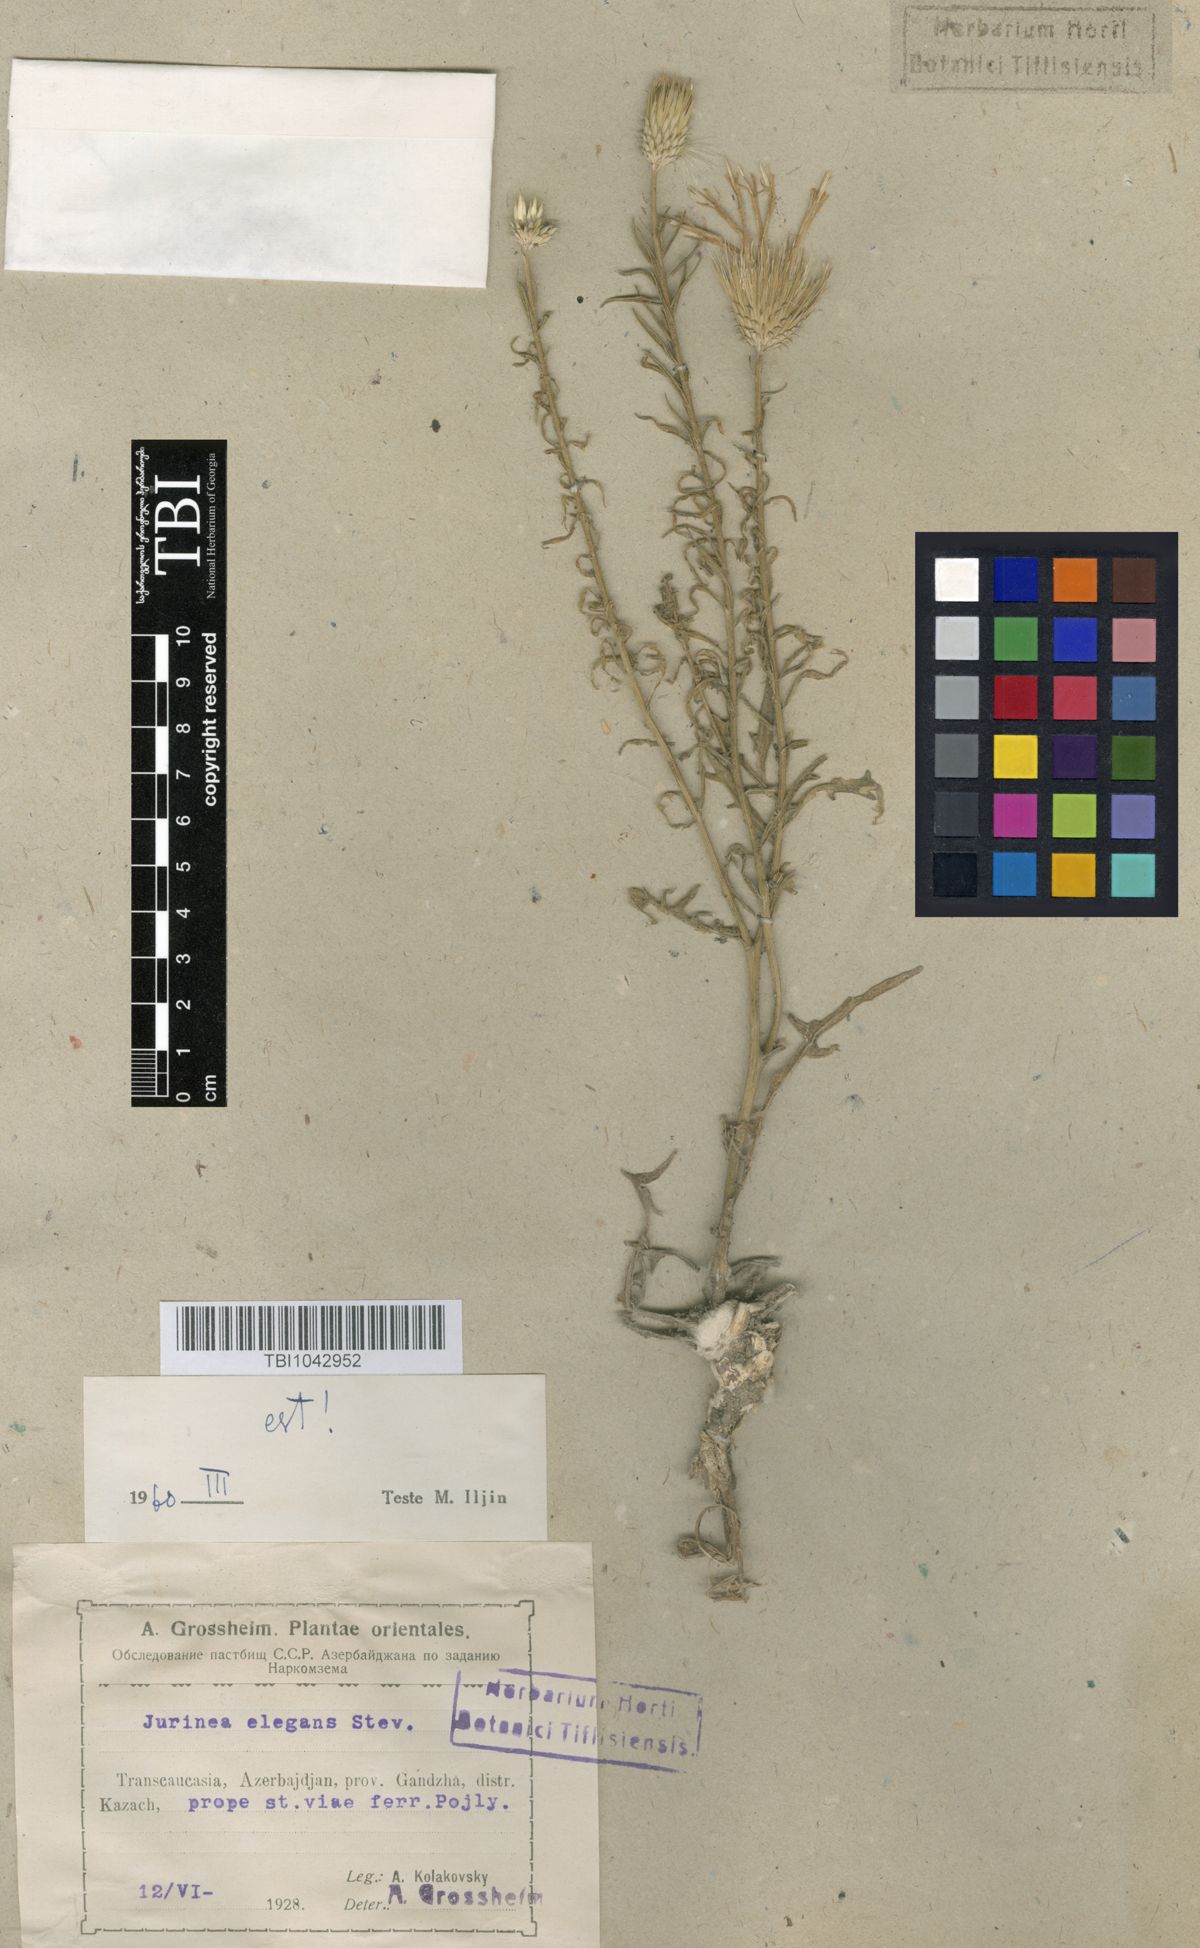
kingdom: Plantae
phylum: Tracheophyta
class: Magnoliopsida
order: Asterales
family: Asteraceae
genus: Jurinea
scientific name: Jurinea elegans
